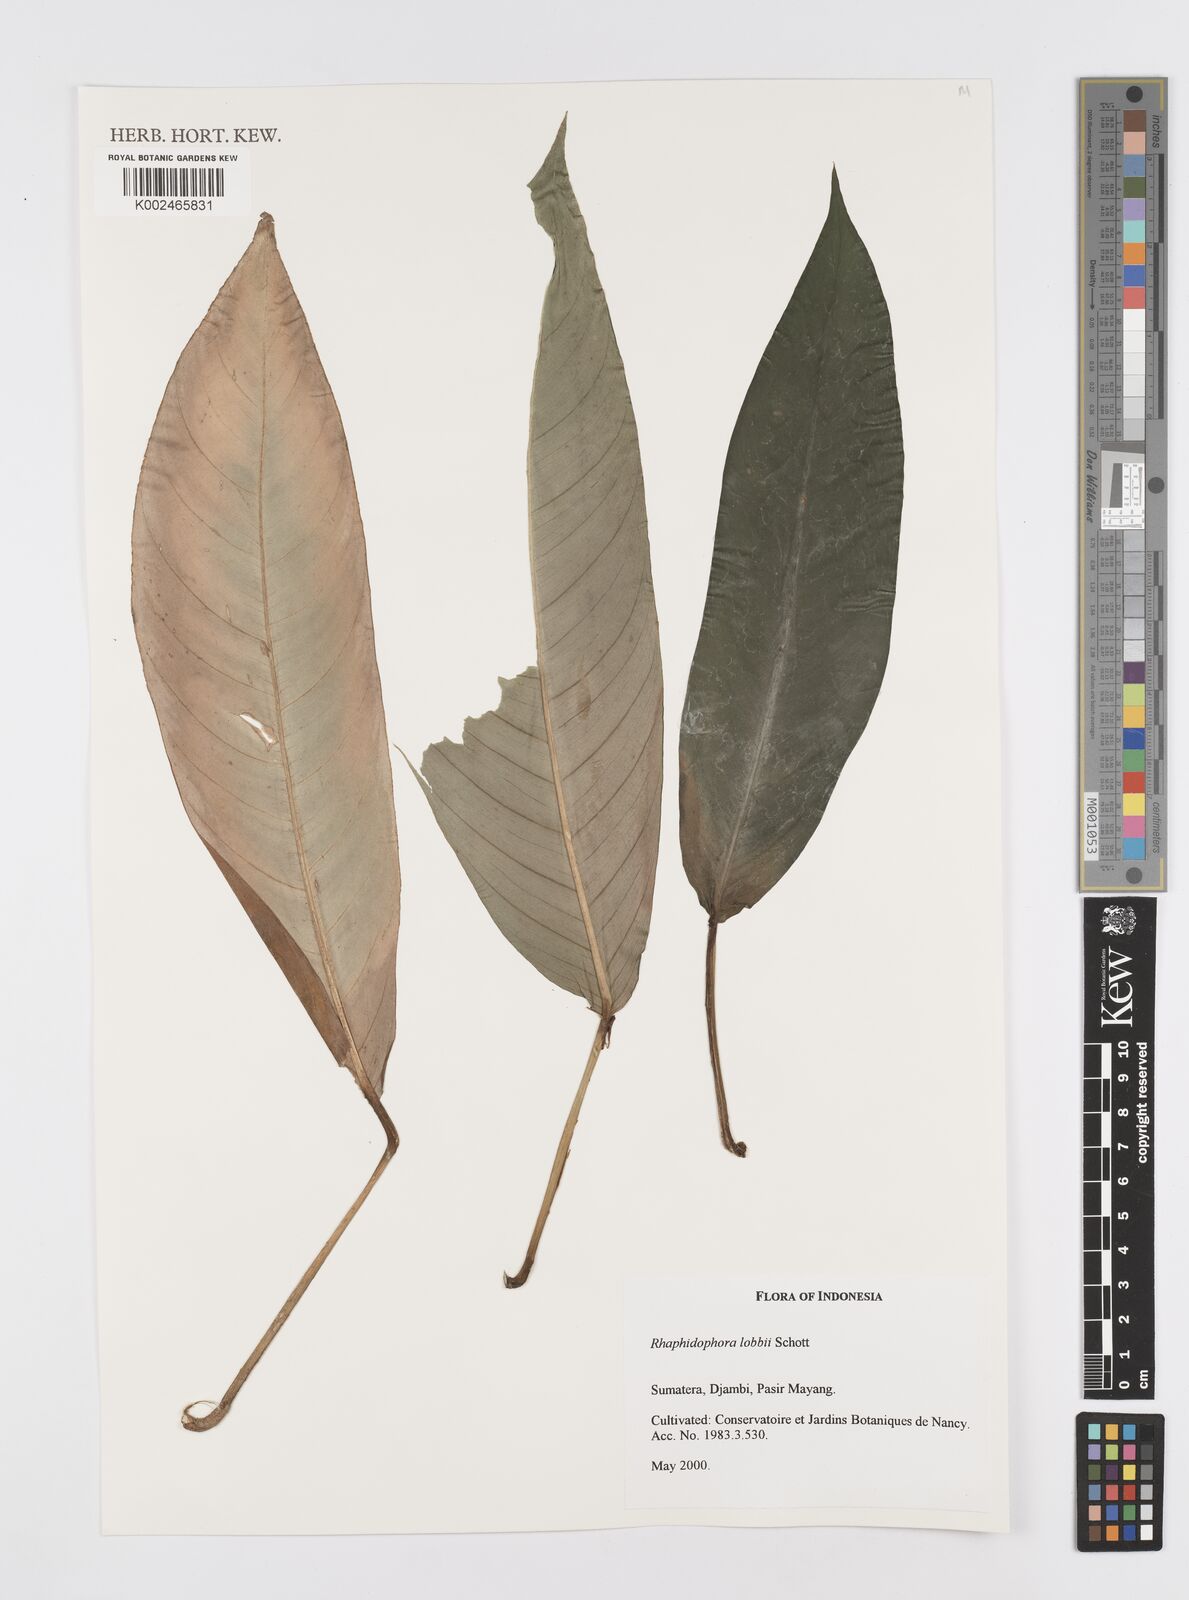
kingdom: Plantae
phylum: Tracheophyta
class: Liliopsida
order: Alismatales
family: Araceae
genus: Rhaphidophora
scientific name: Rhaphidophora lobbii
